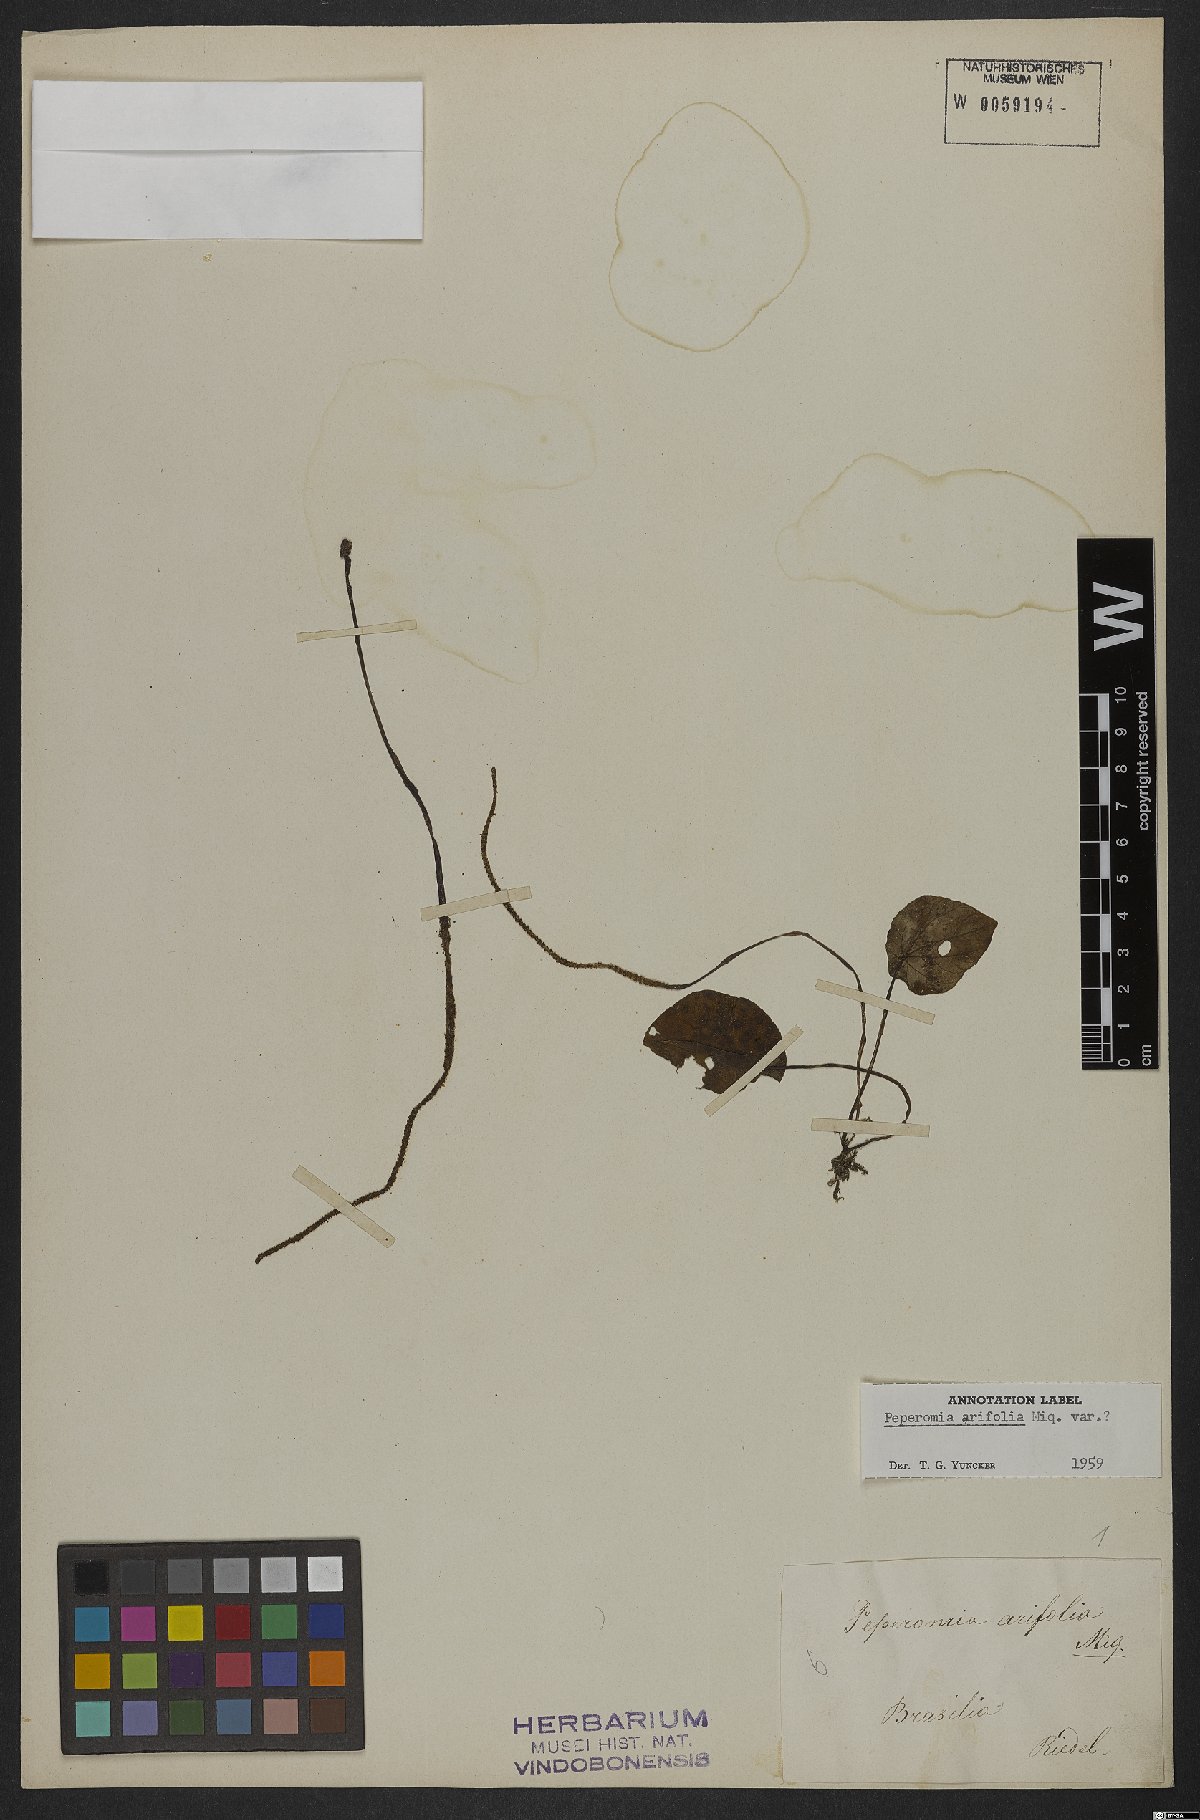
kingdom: Plantae
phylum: Tracheophyta
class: Magnoliopsida
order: Piperales
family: Piperaceae
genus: Peperomia
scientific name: Peperomia galioides
